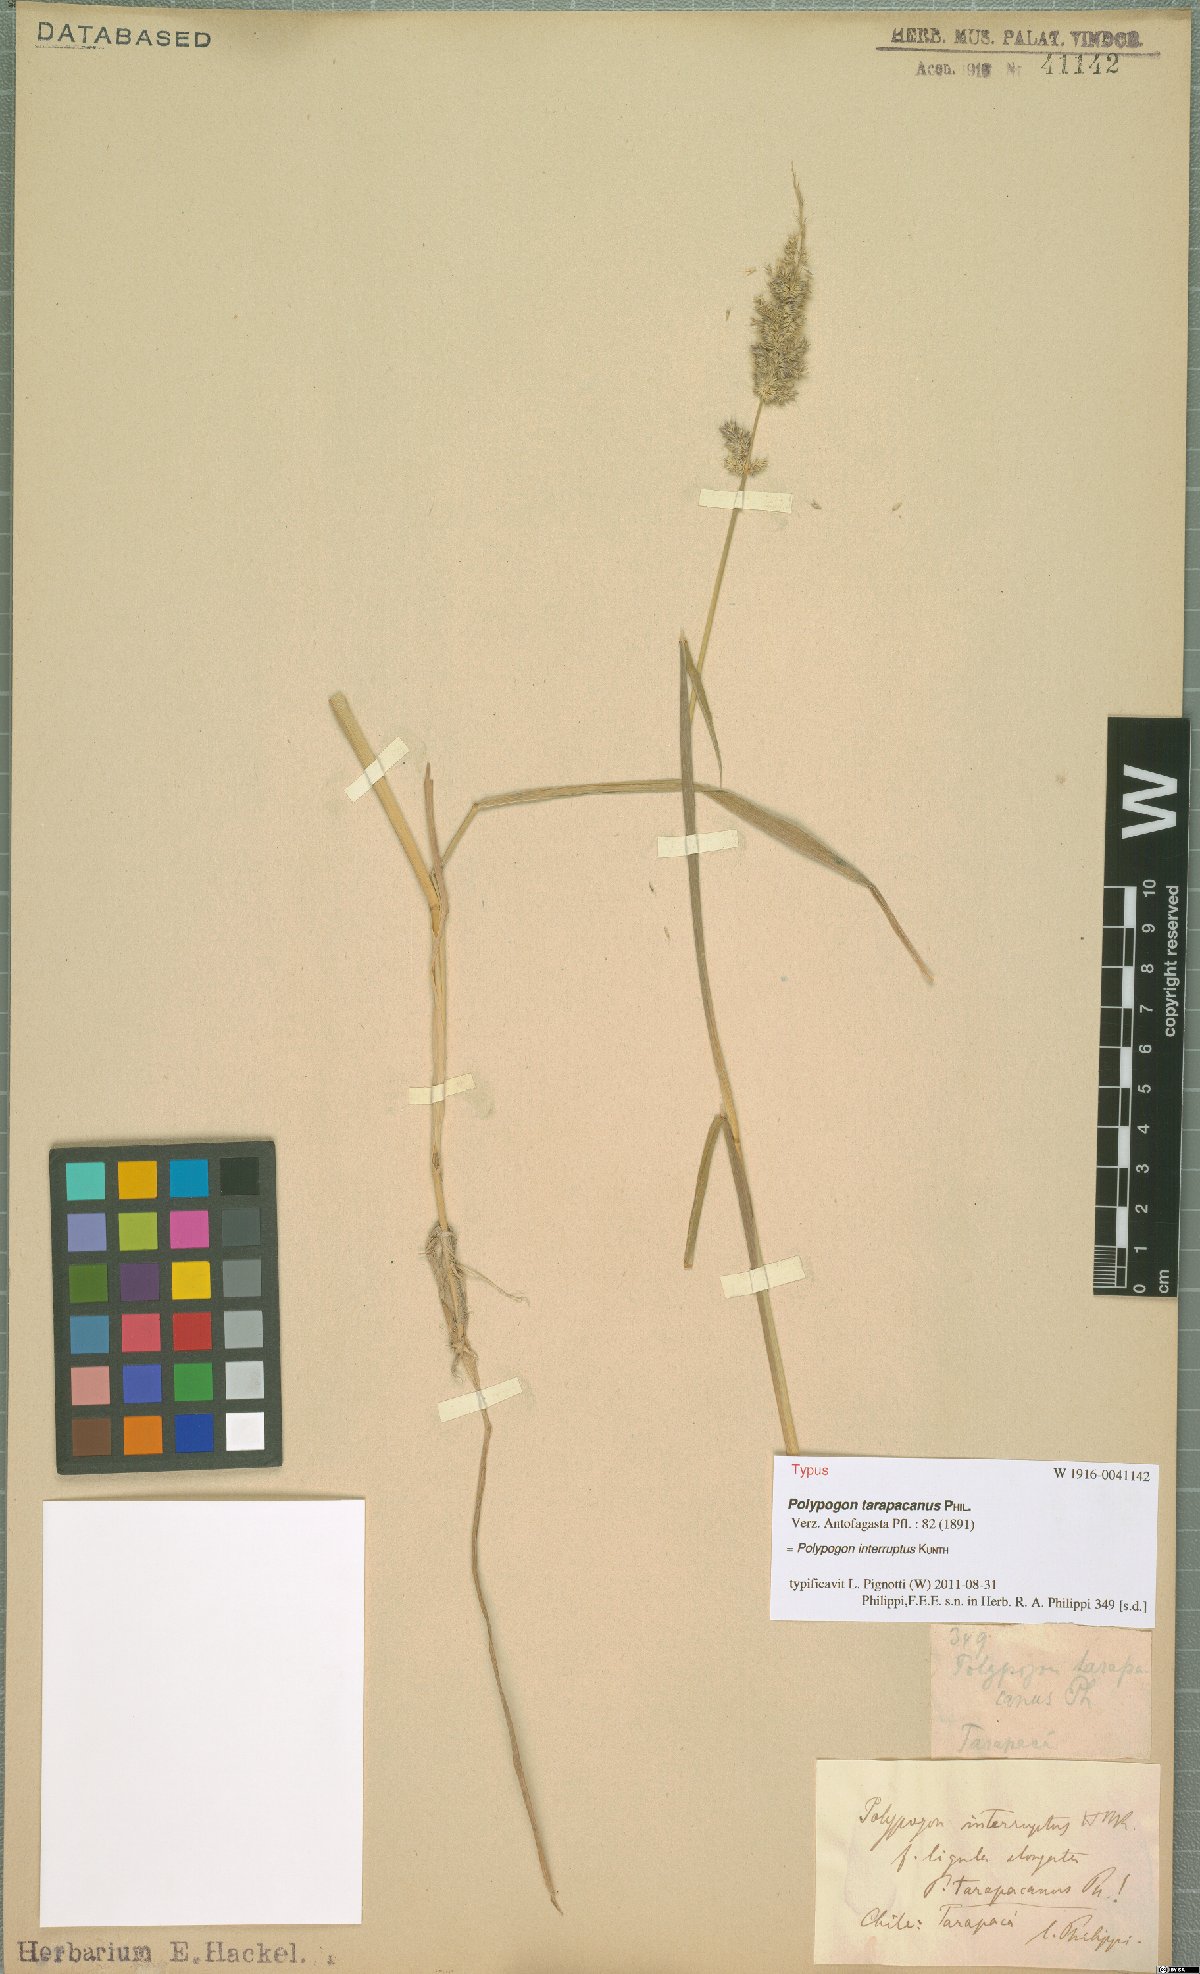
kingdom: Plantae
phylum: Tracheophyta
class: Liliopsida
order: Poales
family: Poaceae
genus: Polypogon
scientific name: Polypogon interruptus
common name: Ditch polypogon
